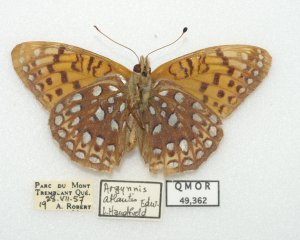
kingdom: Animalia
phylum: Arthropoda
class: Insecta
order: Lepidoptera
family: Nymphalidae
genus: Speyeria
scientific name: Speyeria atlantis
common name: Atlantis Fritillary
